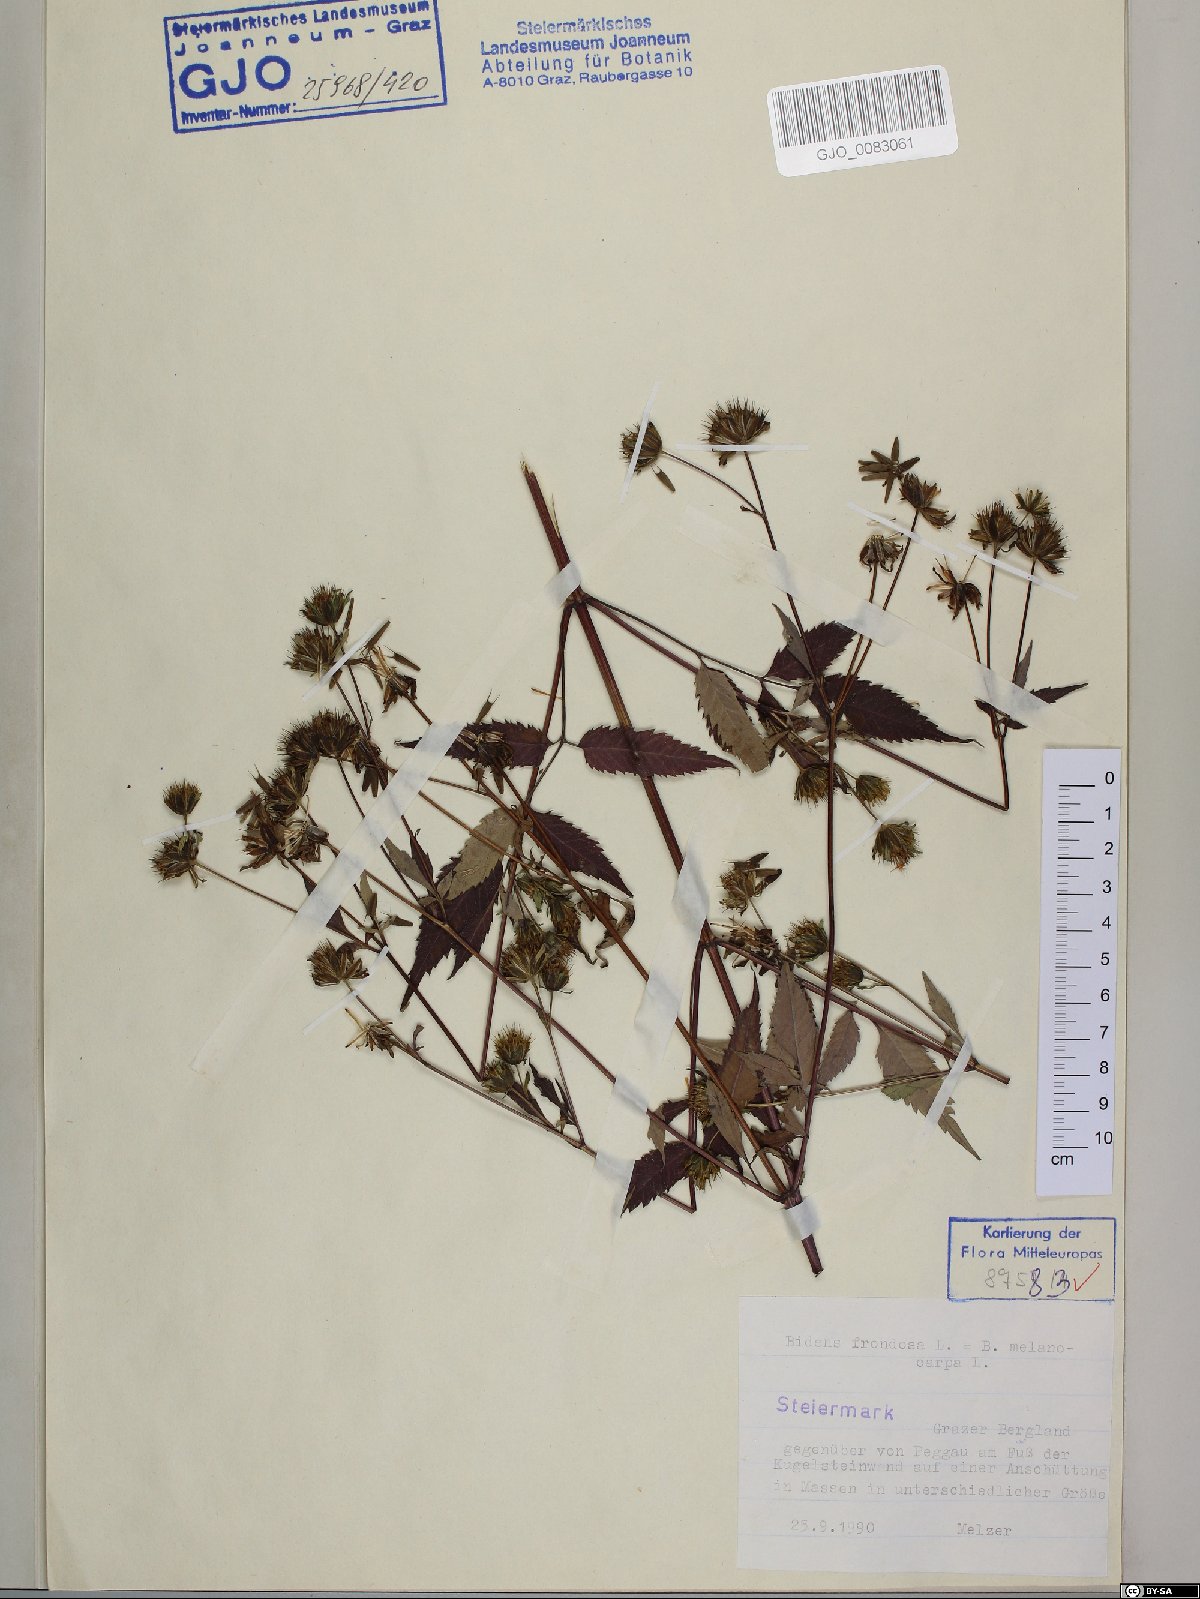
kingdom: Plantae
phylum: Tracheophyta
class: Magnoliopsida
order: Asterales
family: Asteraceae
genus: Bidens
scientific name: Bidens frondosa
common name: Beggarticks
